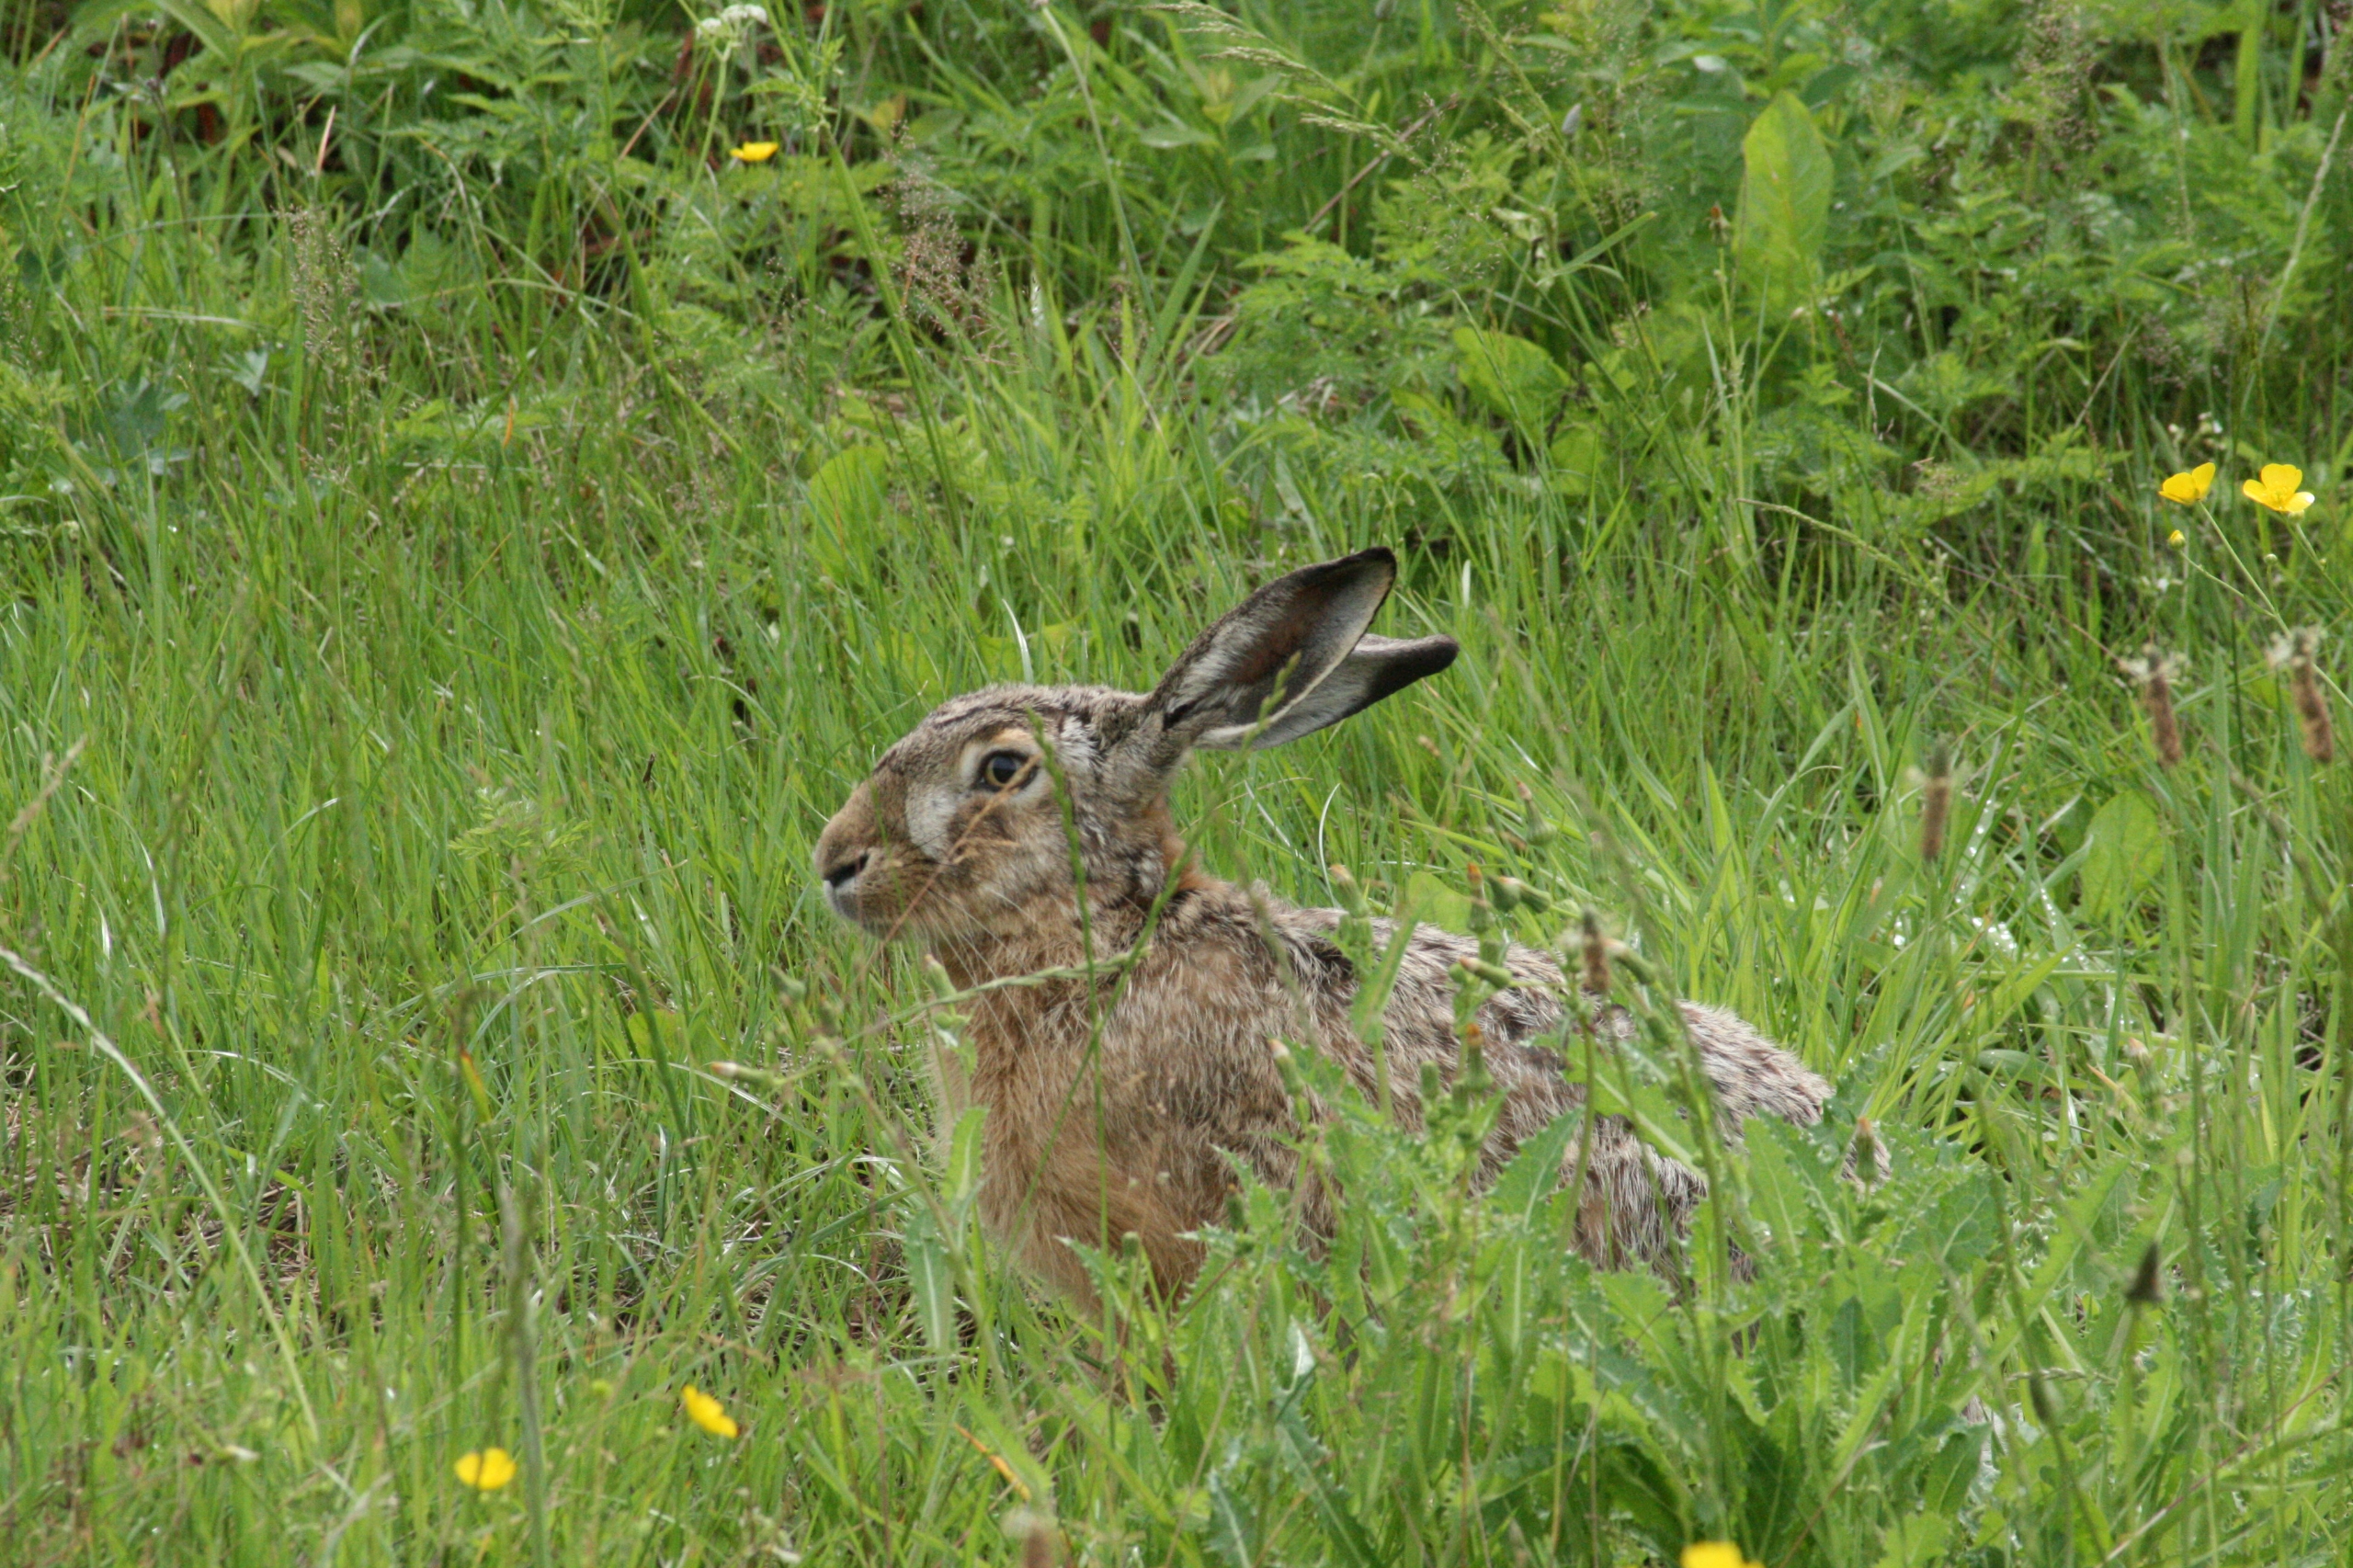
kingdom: Animalia
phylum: Chordata
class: Mammalia
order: Lagomorpha
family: Leporidae
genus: Lepus
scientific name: Lepus europaeus
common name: Hare
